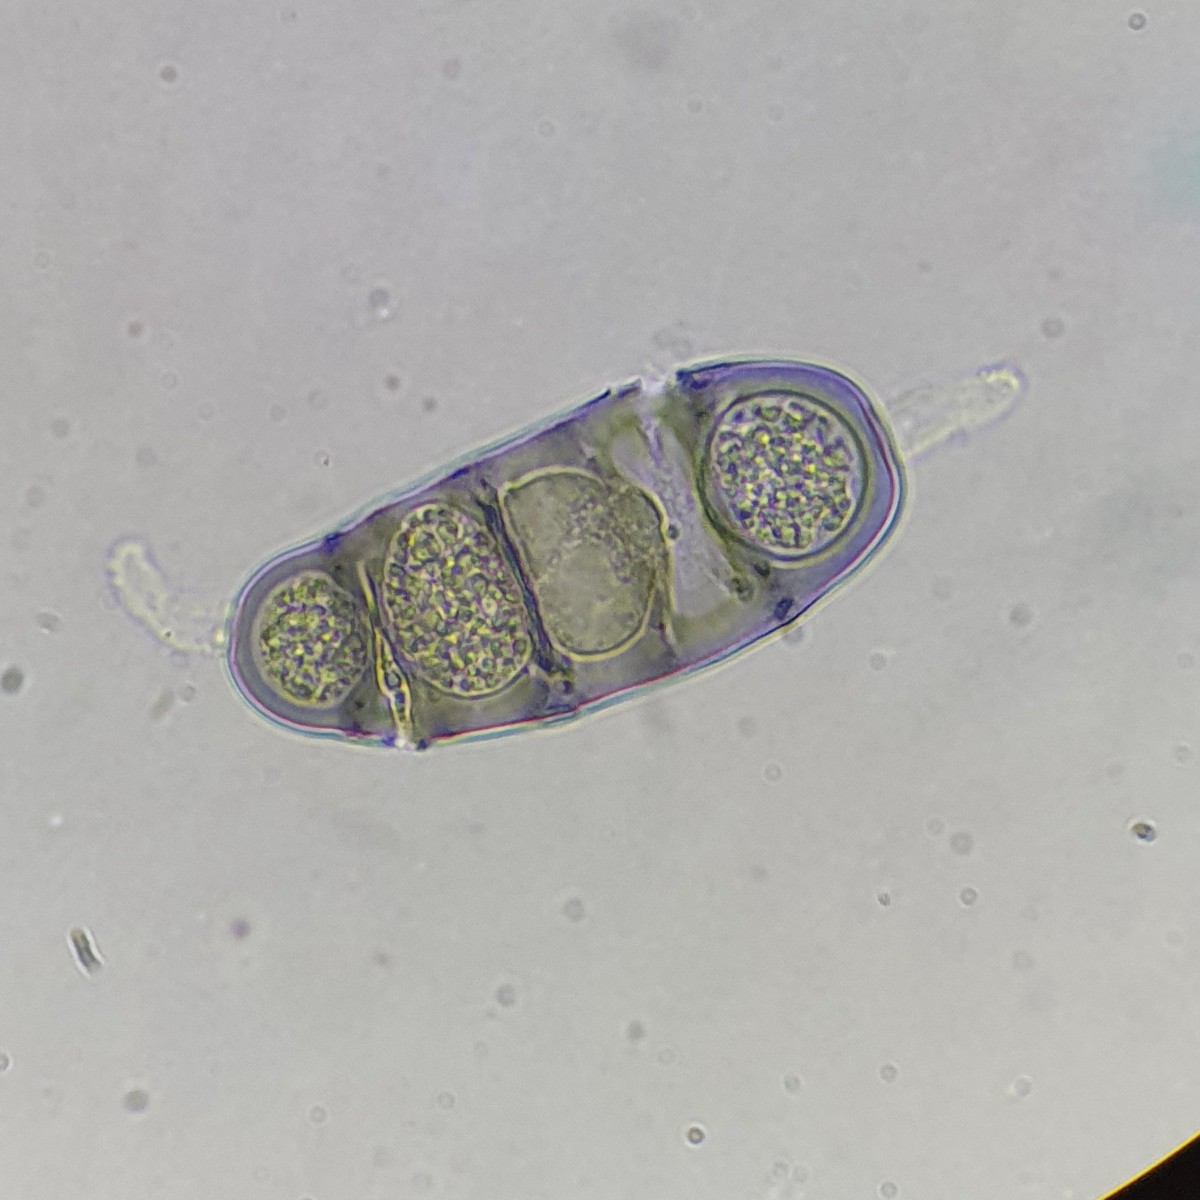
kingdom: Fungi
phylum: Ascomycota
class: Sordariomycetes
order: Diaporthales
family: Sydowiellaceae
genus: Hapalocystis
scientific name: Hapalocystis kickxii
